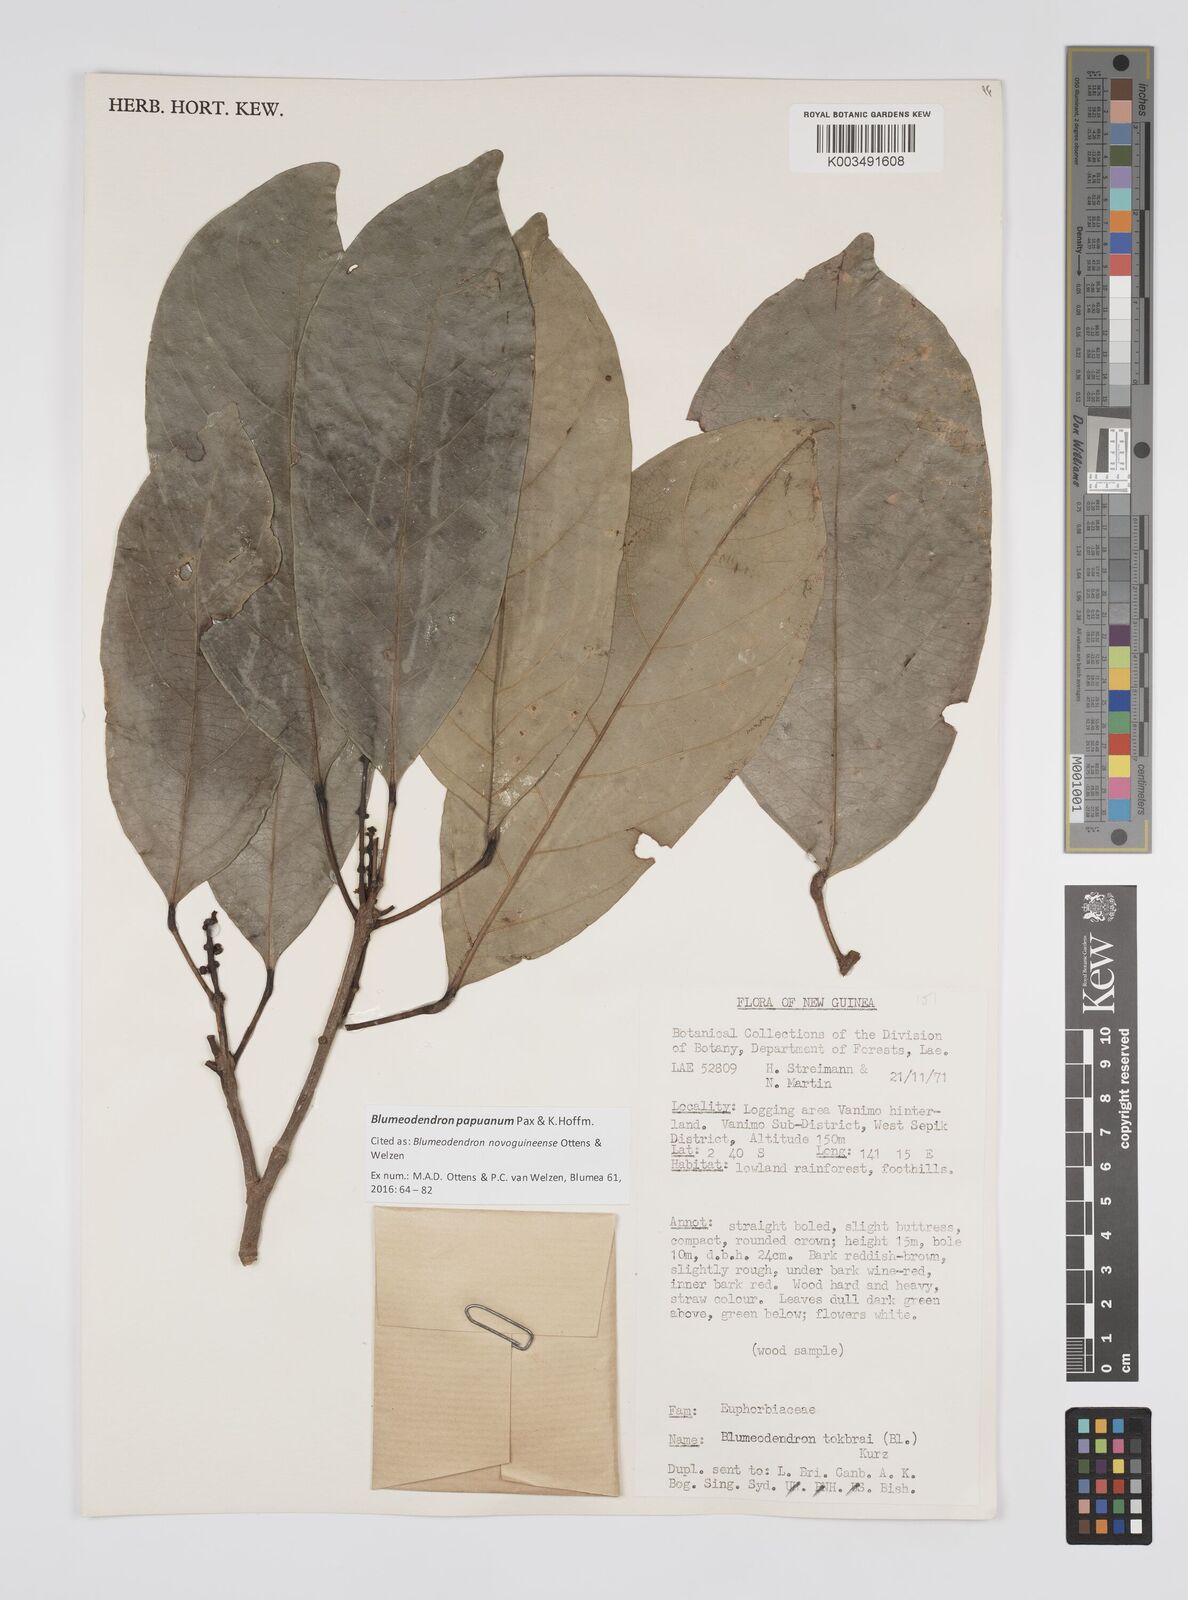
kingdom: Plantae
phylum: Tracheophyta
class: Magnoliopsida
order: Malpighiales
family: Euphorbiaceae
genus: Blumeodendron
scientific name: Blumeodendron papuanum
